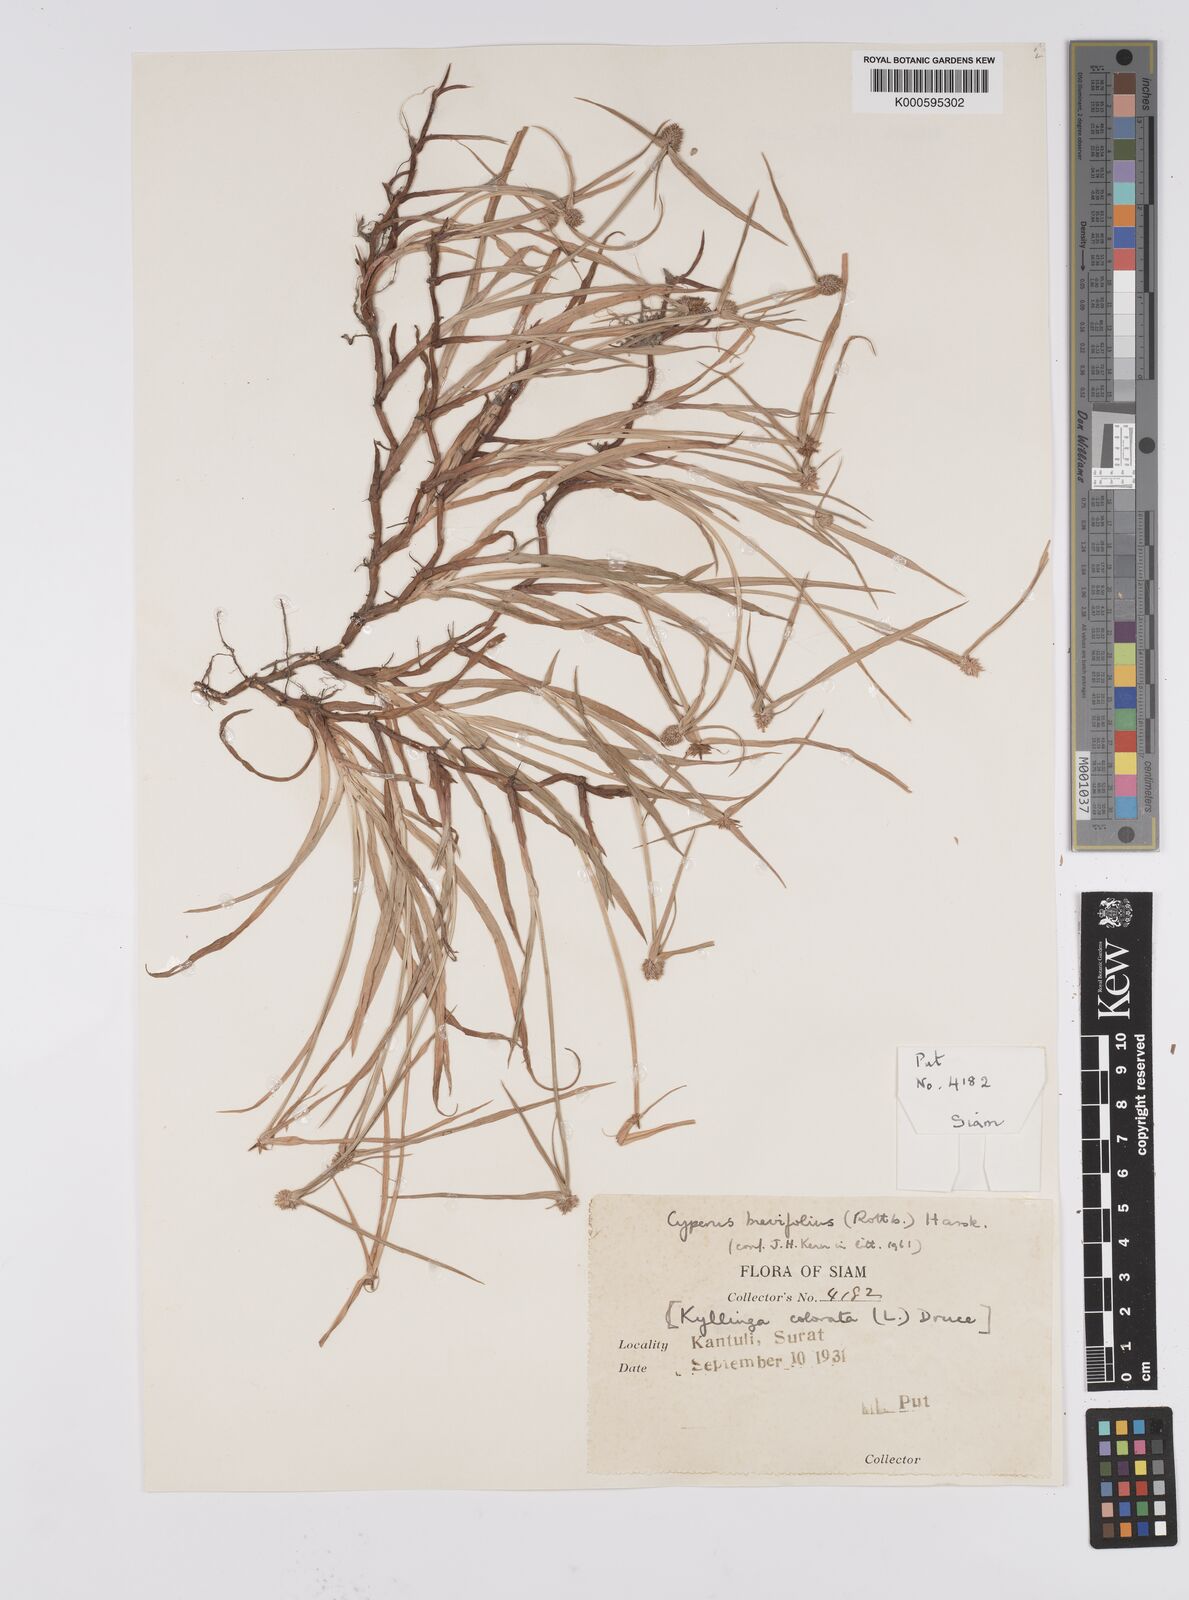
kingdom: Plantae
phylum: Tracheophyta
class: Liliopsida
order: Poales
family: Cyperaceae
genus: Cyperus
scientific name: Cyperus brevifolius
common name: Globe kyllinga
